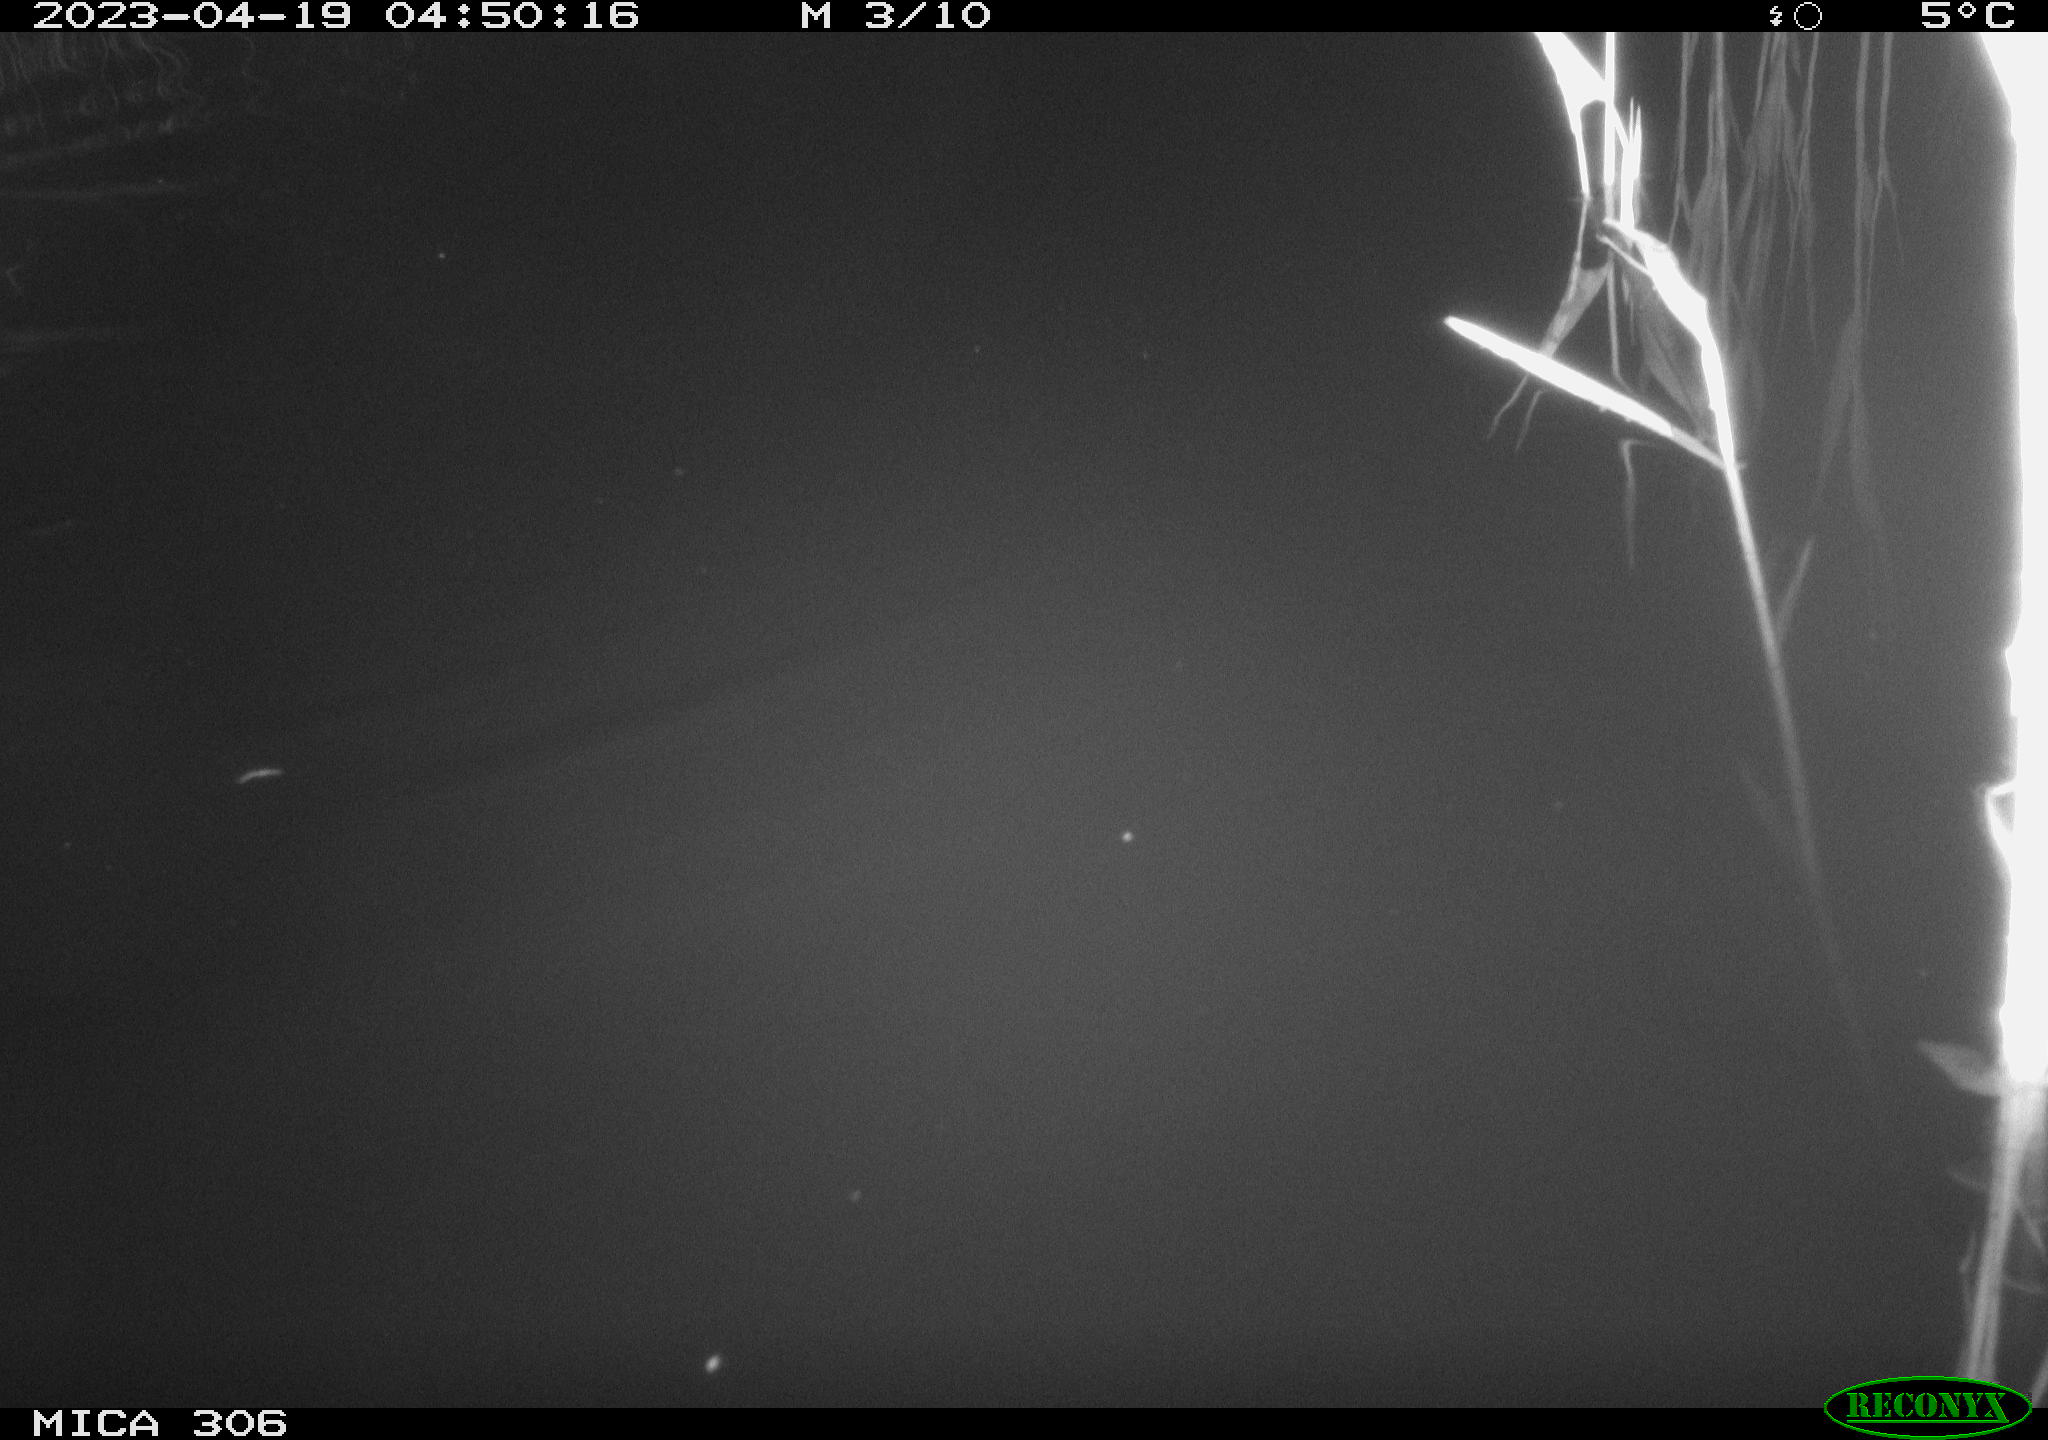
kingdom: Animalia
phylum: Chordata
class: Aves
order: Anseriformes
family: Anatidae
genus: Anas
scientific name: Anas
